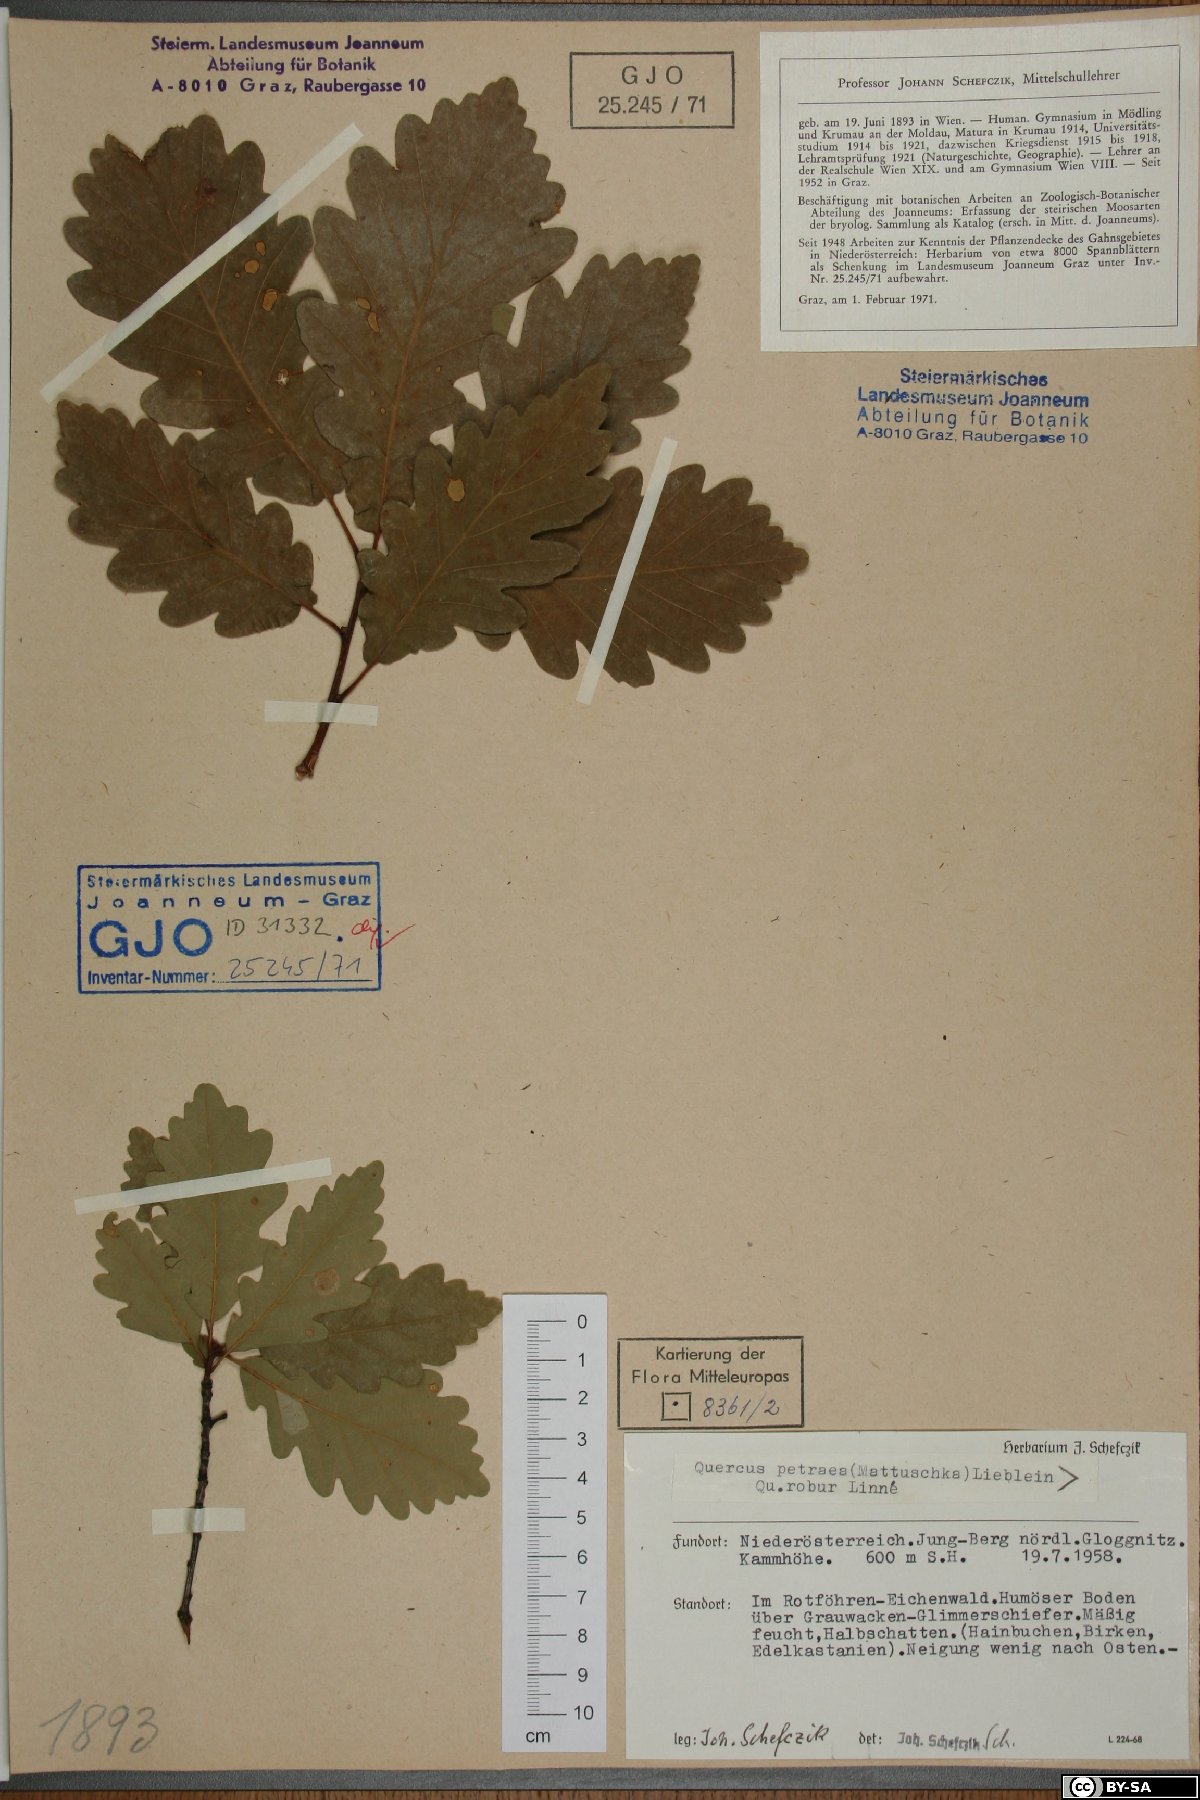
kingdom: Plantae
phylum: Tracheophyta
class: Magnoliopsida
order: Fagales
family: Fagaceae
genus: Quercus
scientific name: Quercus petraea
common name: Sessile oak
